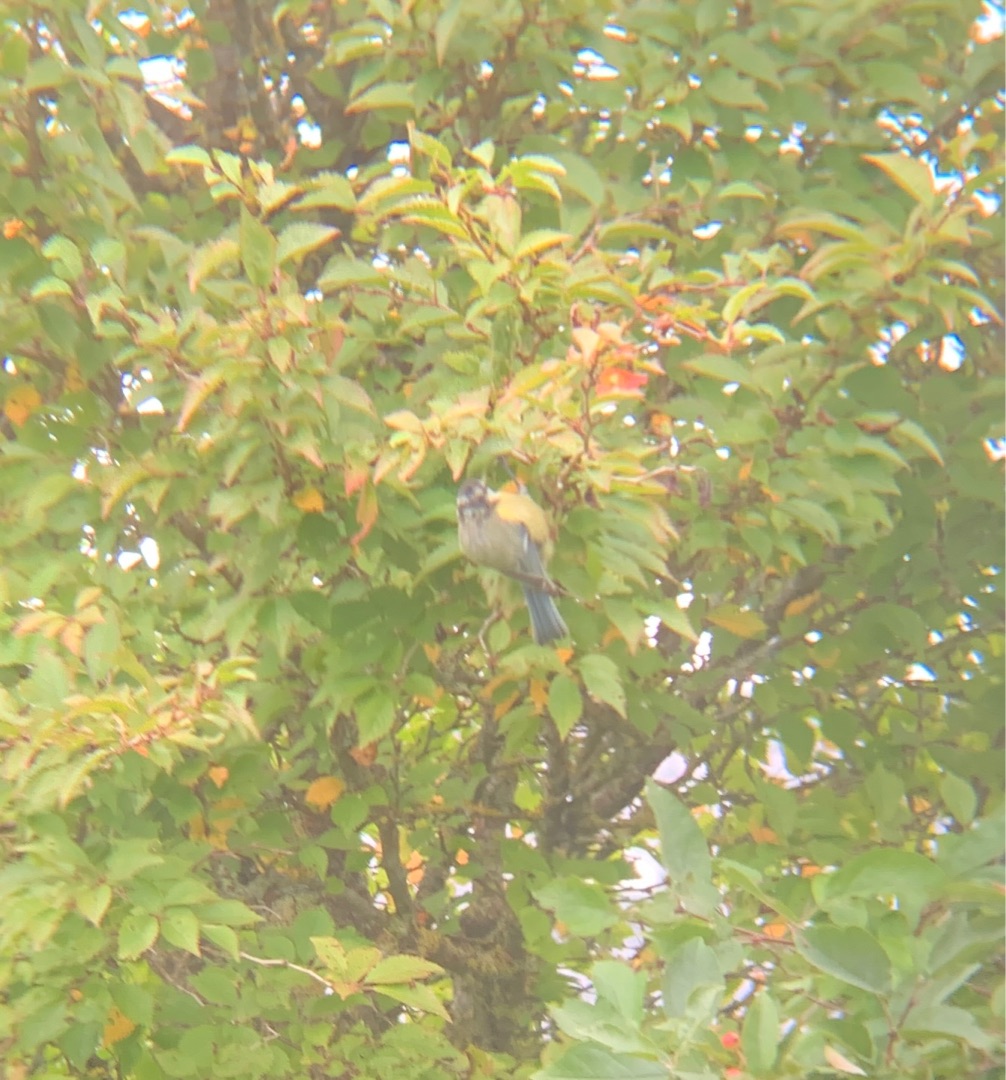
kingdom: Animalia
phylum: Chordata
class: Aves
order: Passeriformes
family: Paridae
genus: Cyanistes
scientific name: Cyanistes caeruleus
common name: Blåmejse
